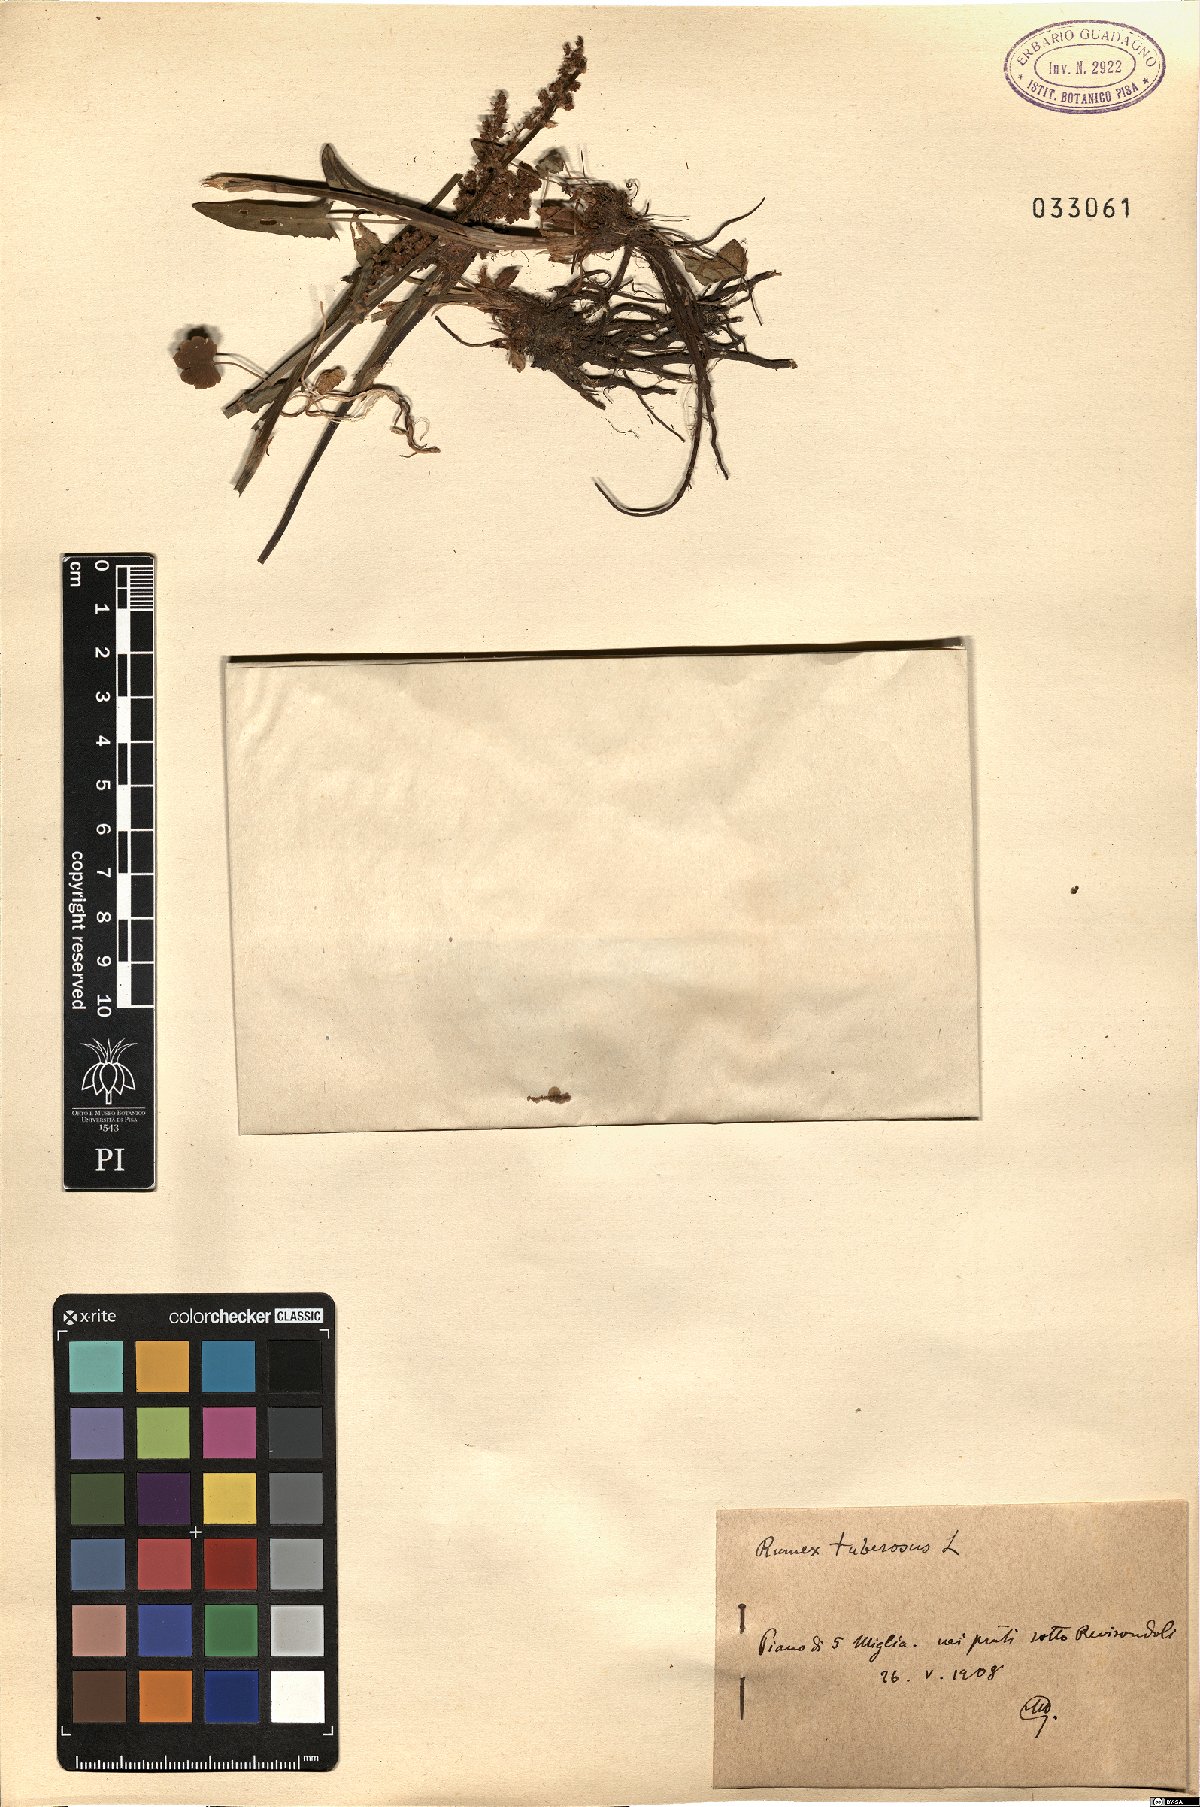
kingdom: Plantae
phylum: Tracheophyta
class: Magnoliopsida
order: Caryophyllales
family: Polygonaceae
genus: Rumex
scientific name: Rumex tuberosus
